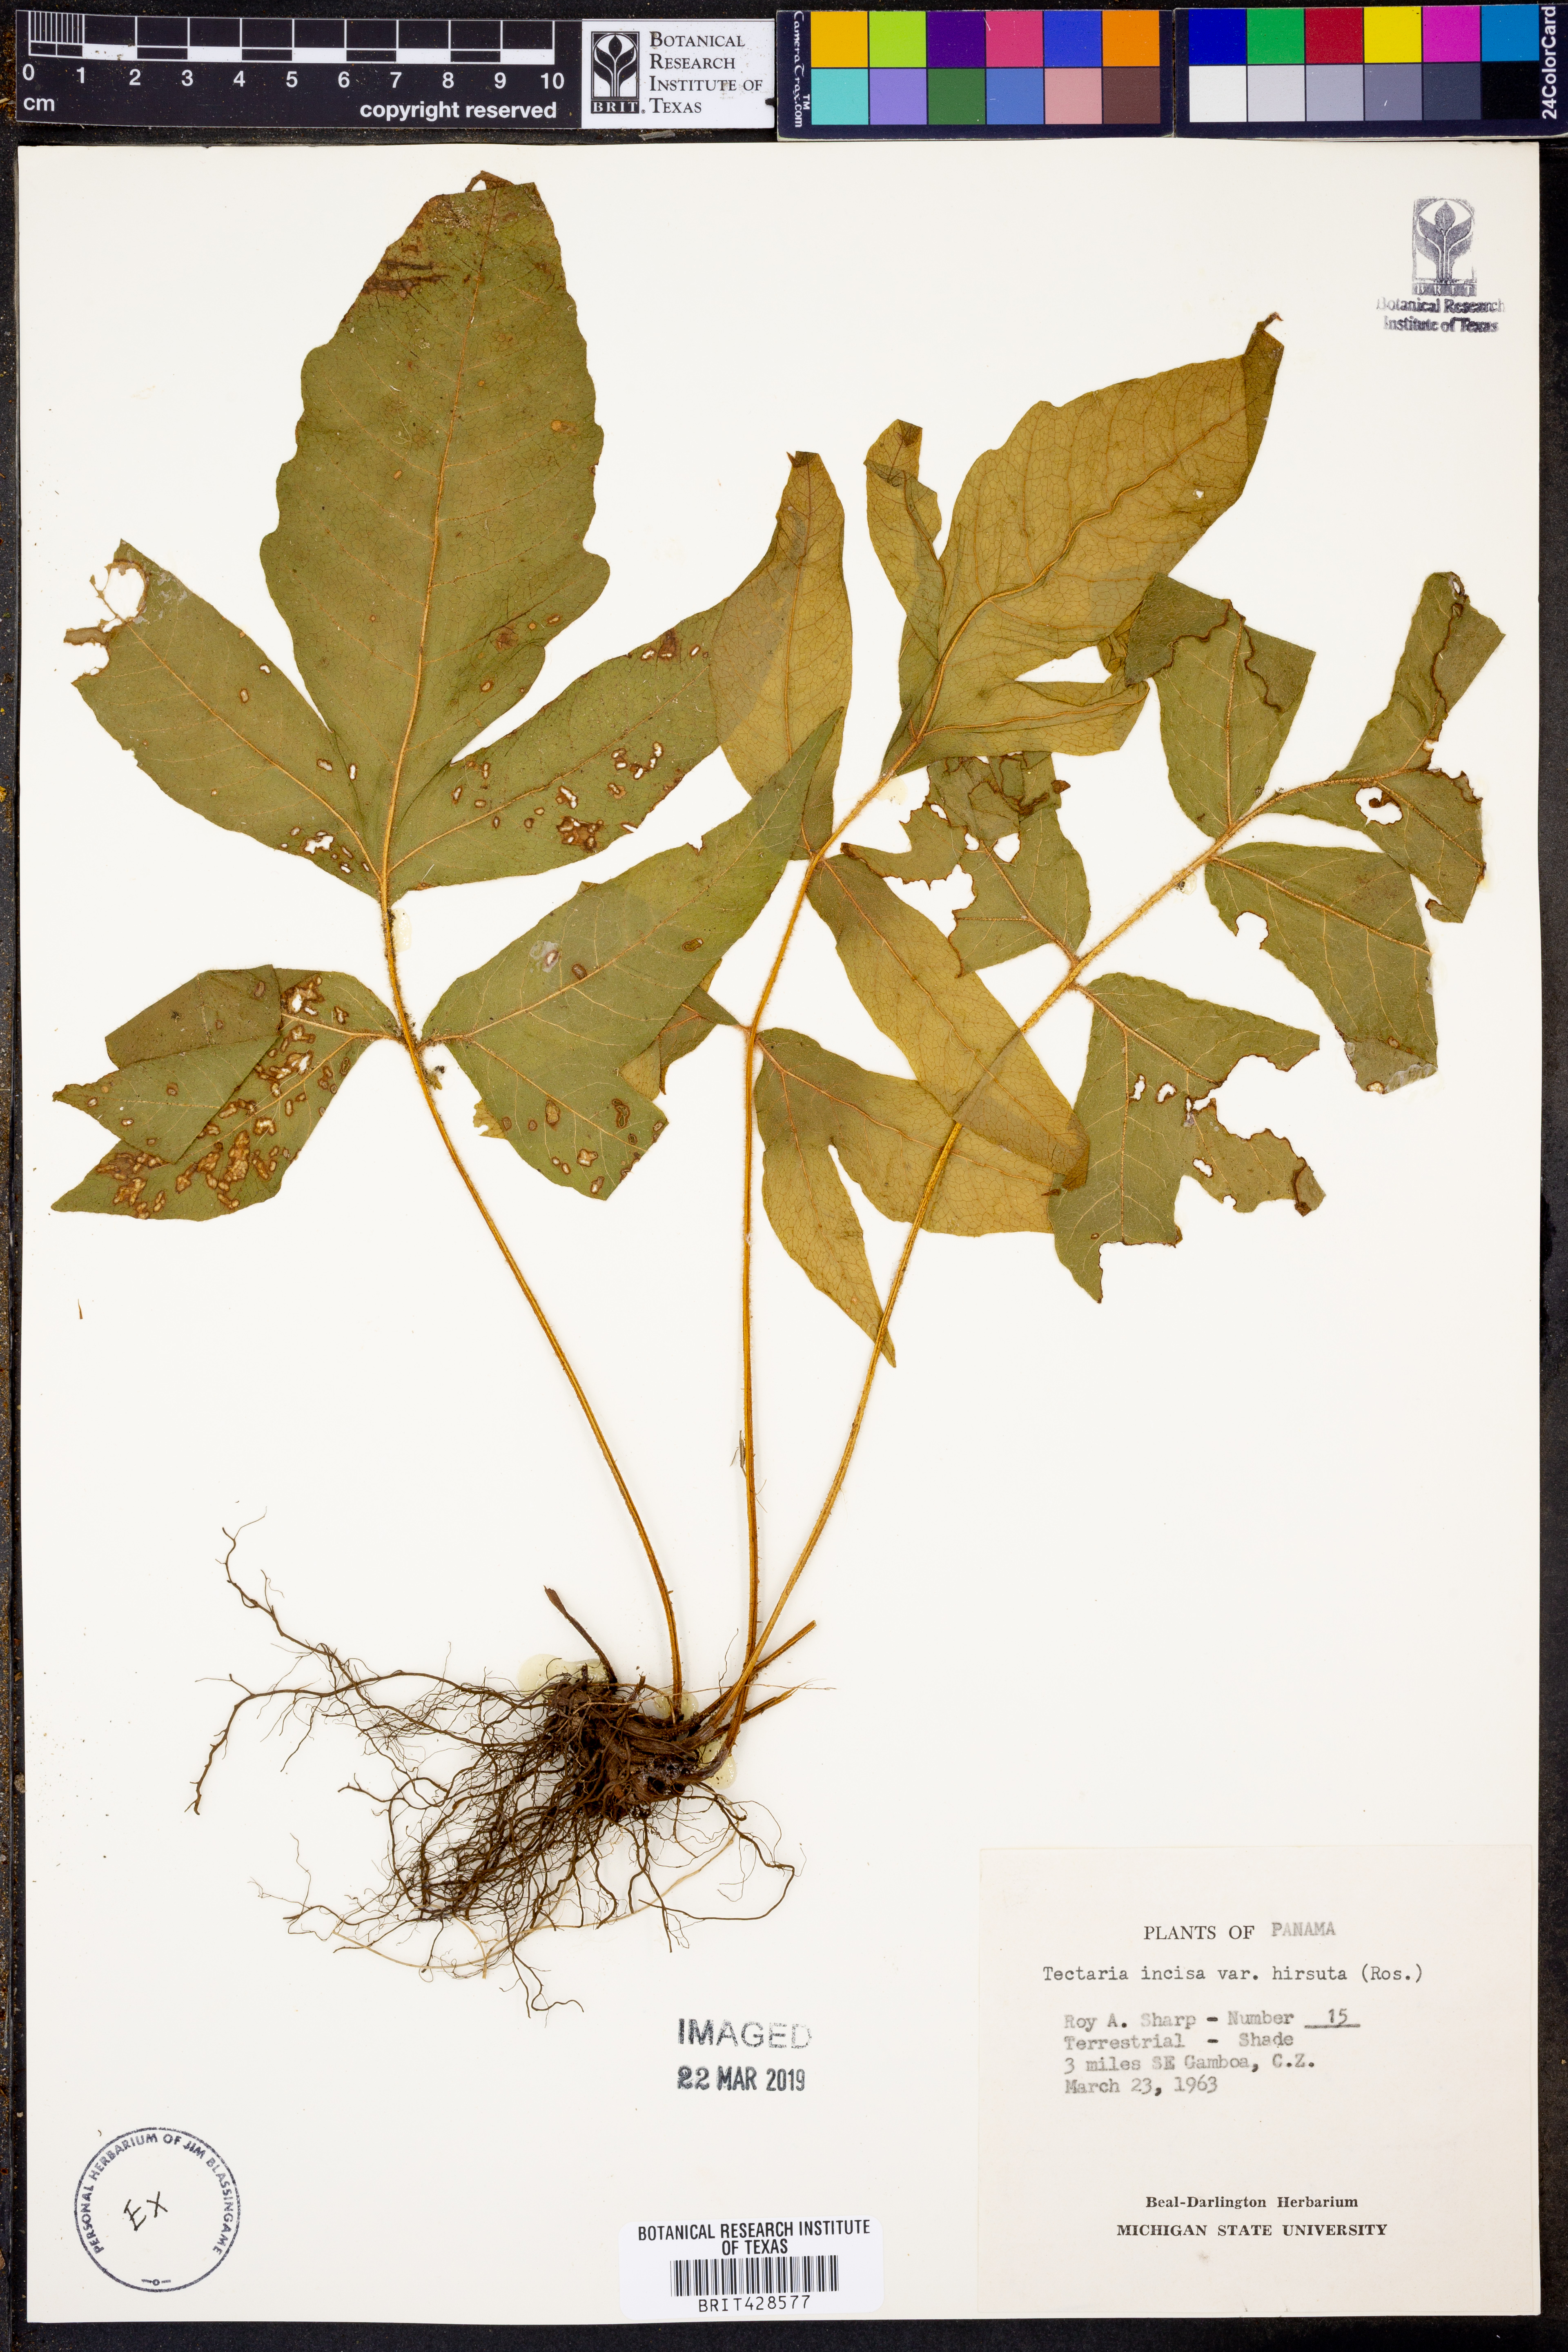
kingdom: Plantae
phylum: Tracheophyta
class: Polypodiopsida
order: Polypodiales
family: Tectariaceae
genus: Tectaria
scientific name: Tectaria incisa
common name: Incised halberd fern
